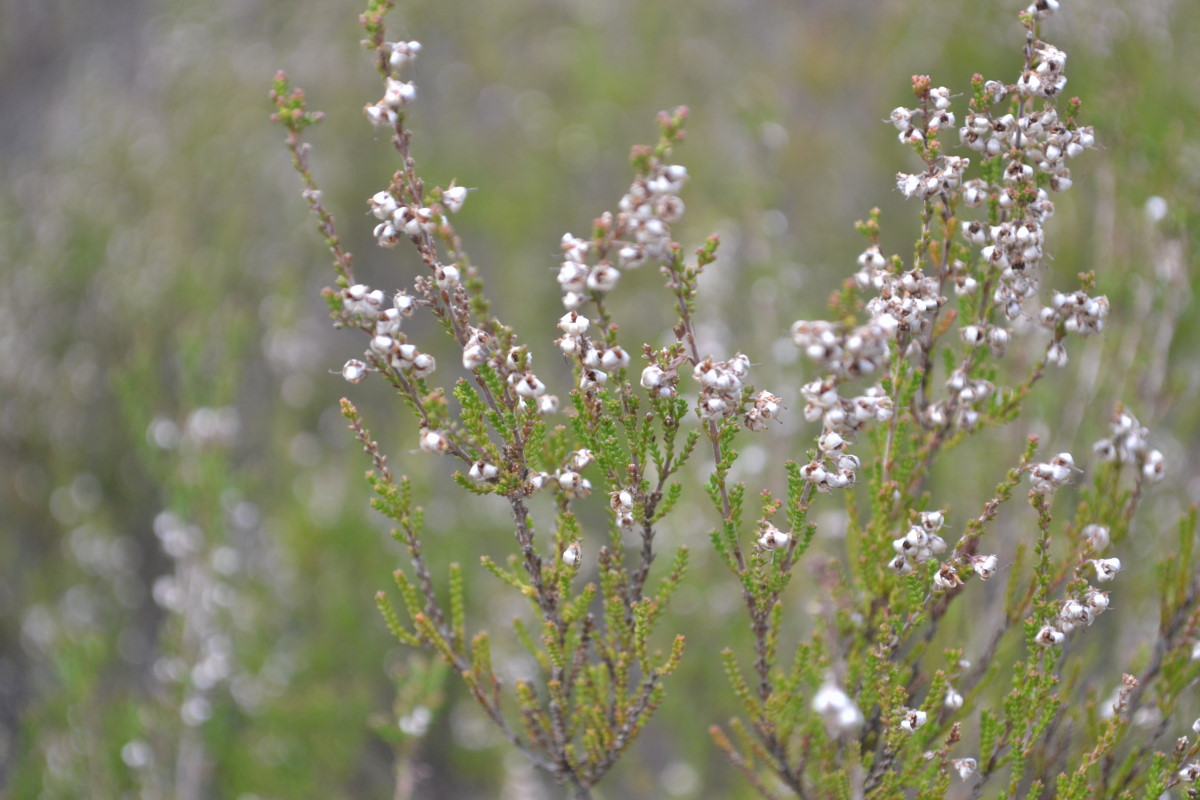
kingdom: Plantae
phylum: Tracheophyta
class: Magnoliopsida
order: Ericales
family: Ericaceae
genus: Calluna
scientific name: Calluna vulgaris
